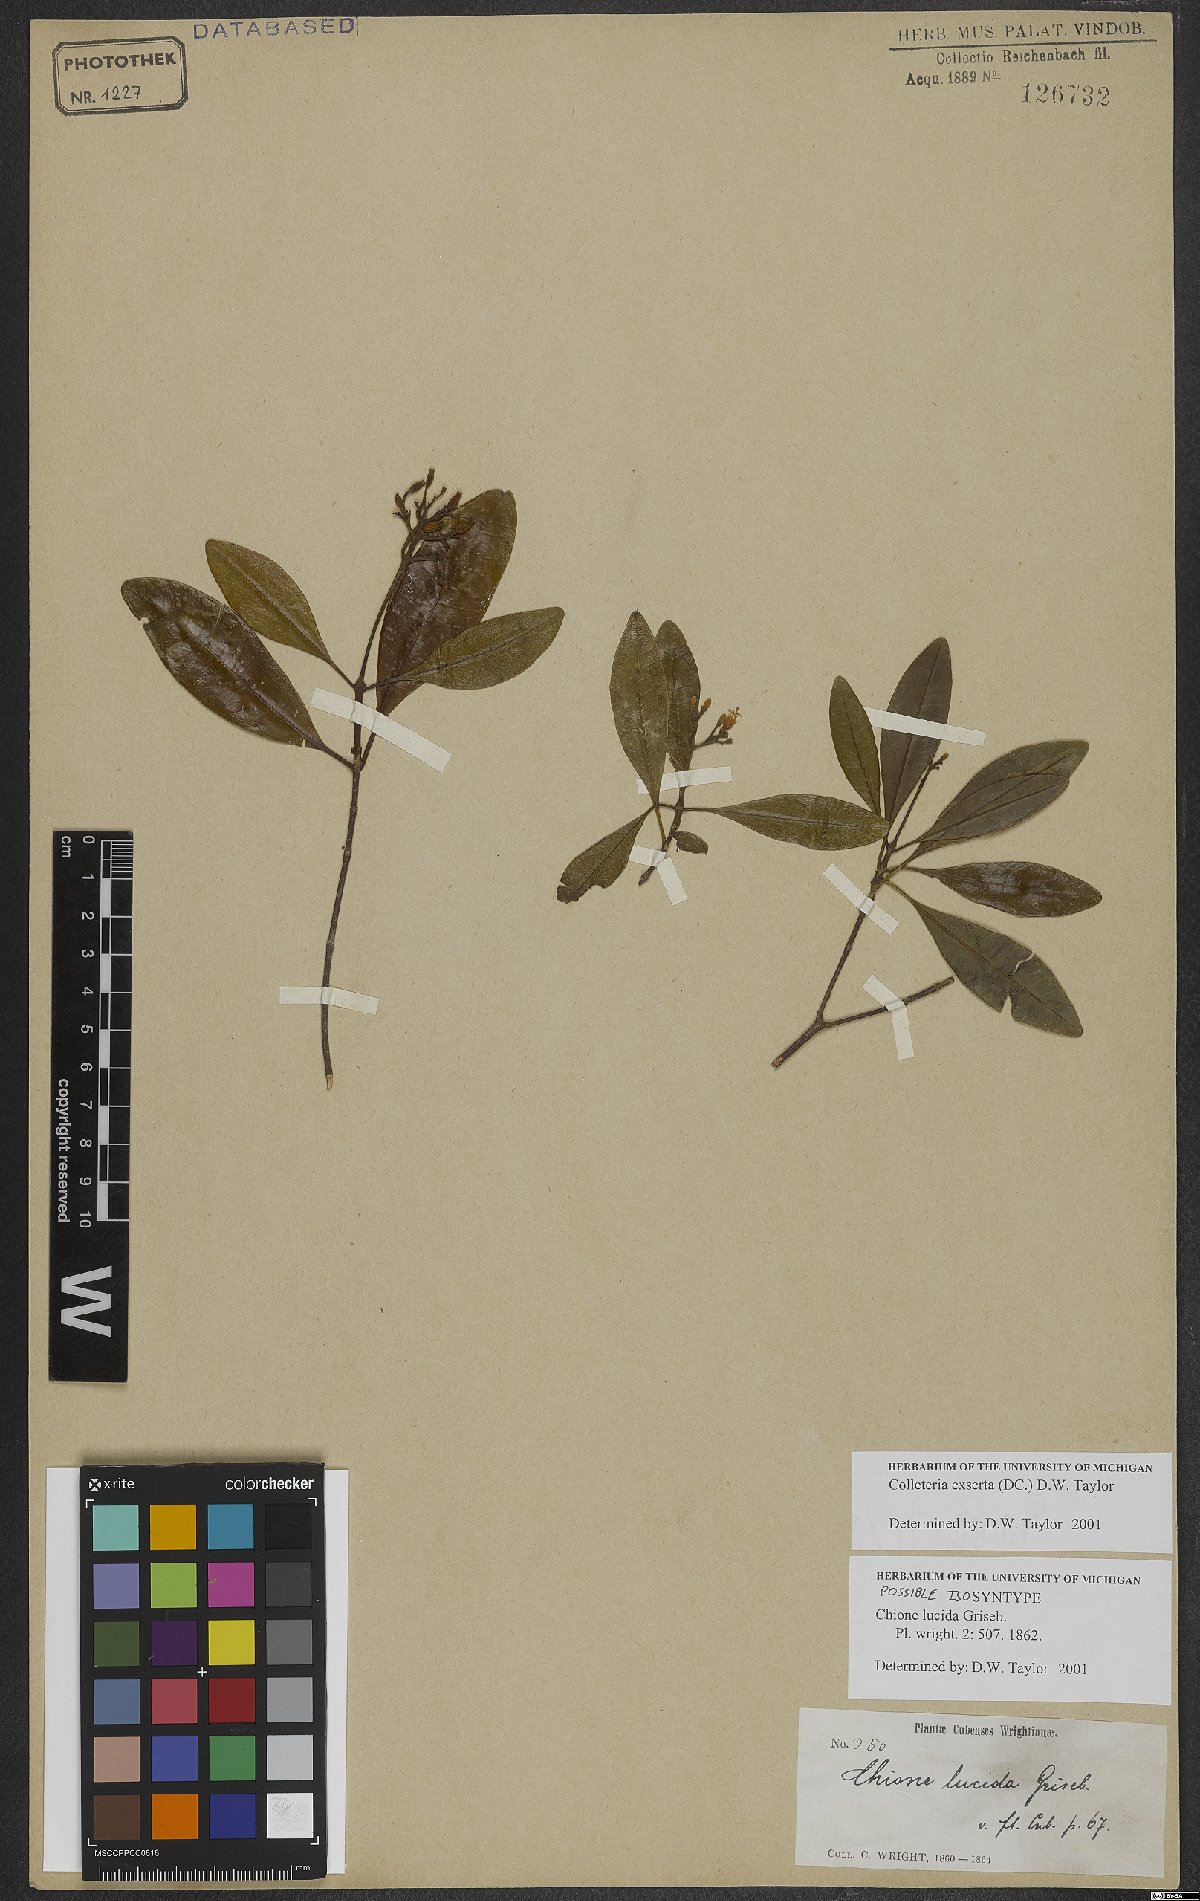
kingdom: Plantae
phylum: Tracheophyta
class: Magnoliopsida
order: Gentianales
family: Rubiaceae
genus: Wandersong
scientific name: Wandersong exserta
